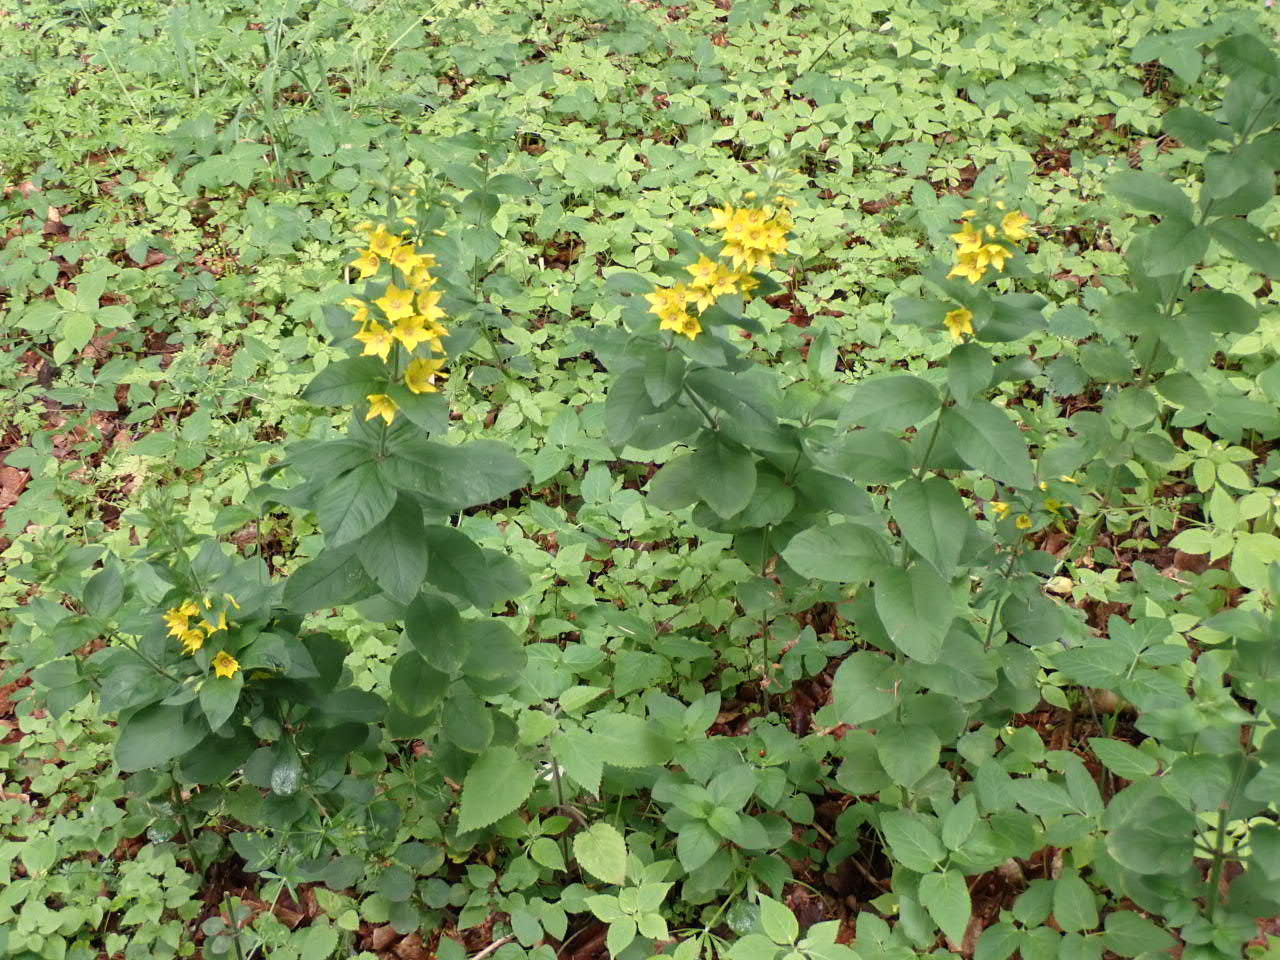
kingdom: Plantae
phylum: Tracheophyta
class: Magnoliopsida
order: Ericales
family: Primulaceae
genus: Lysimachia
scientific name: Lysimachia punctata
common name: Prikbladet fredløs
